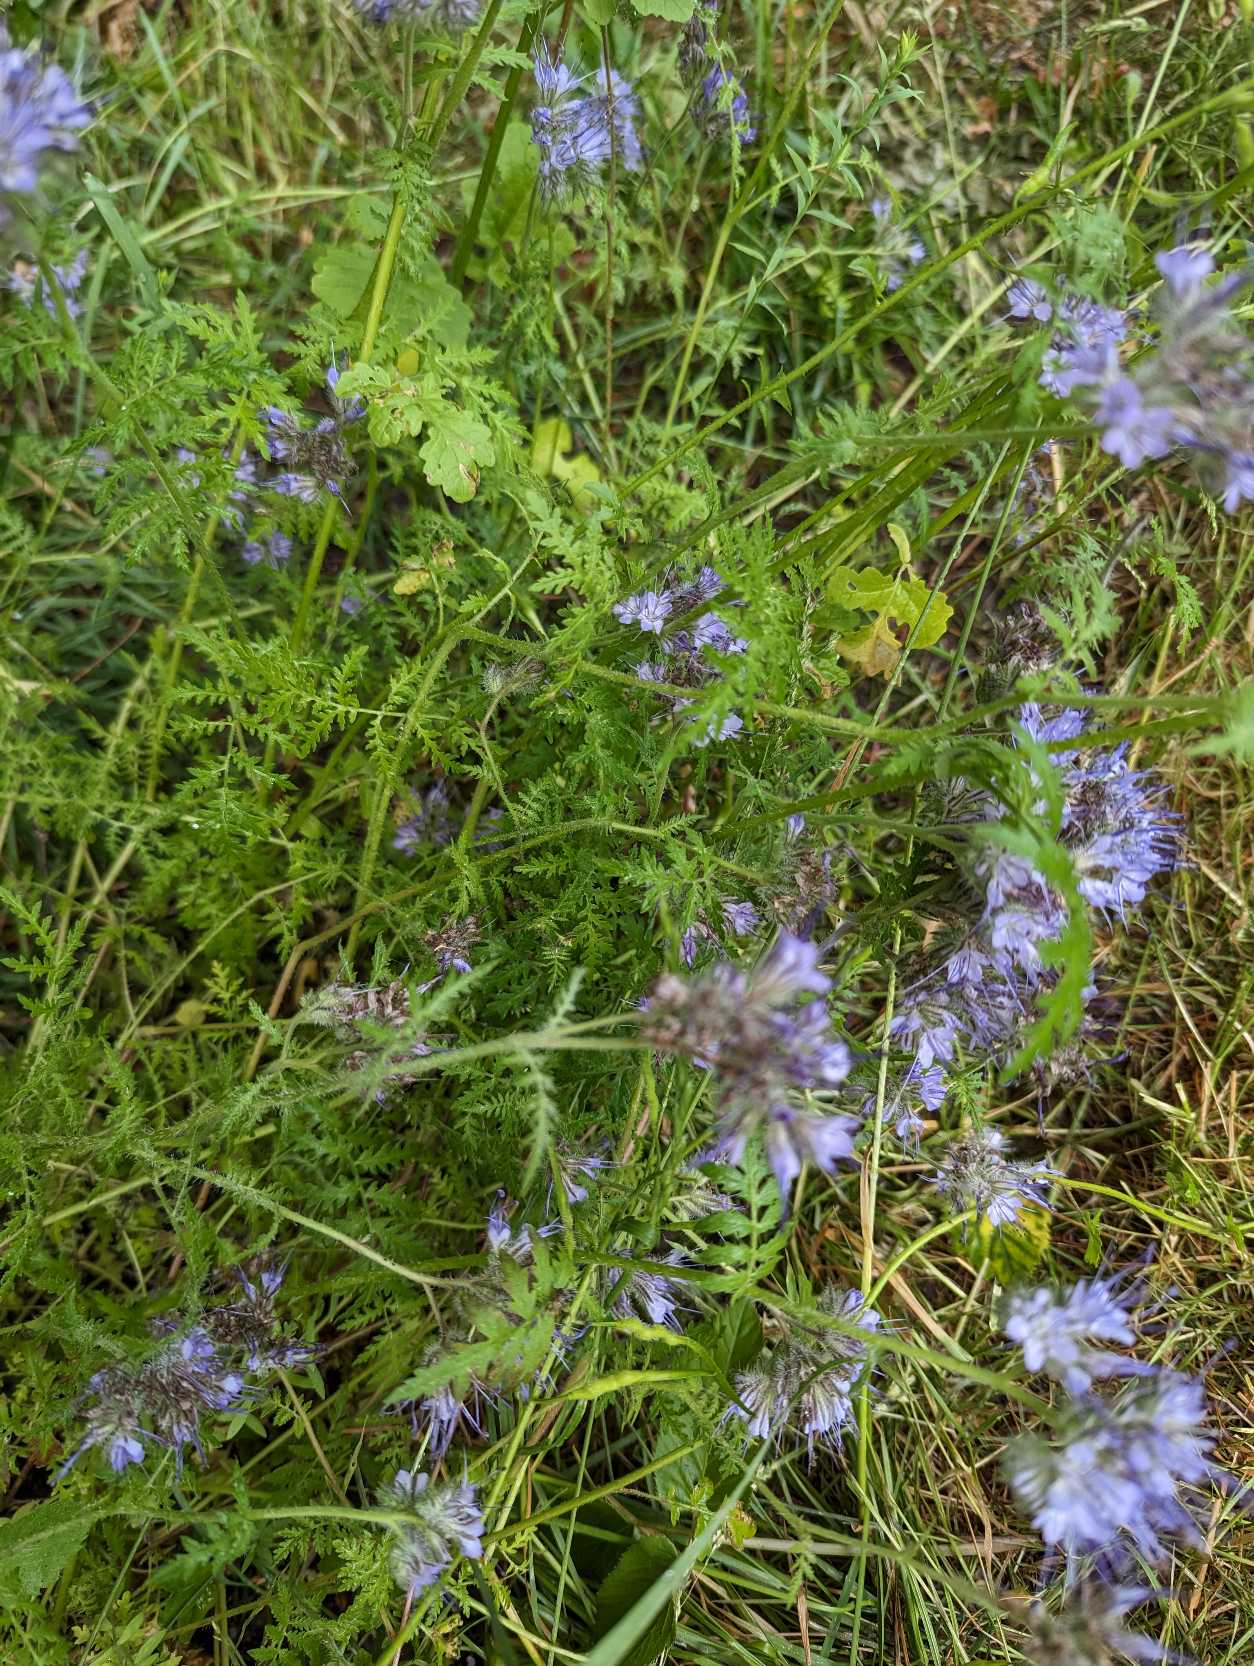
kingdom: Plantae
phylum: Tracheophyta
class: Magnoliopsida
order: Boraginales
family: Hydrophyllaceae
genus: Phacelia
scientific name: Phacelia tanacetifolia
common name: Honningurt
